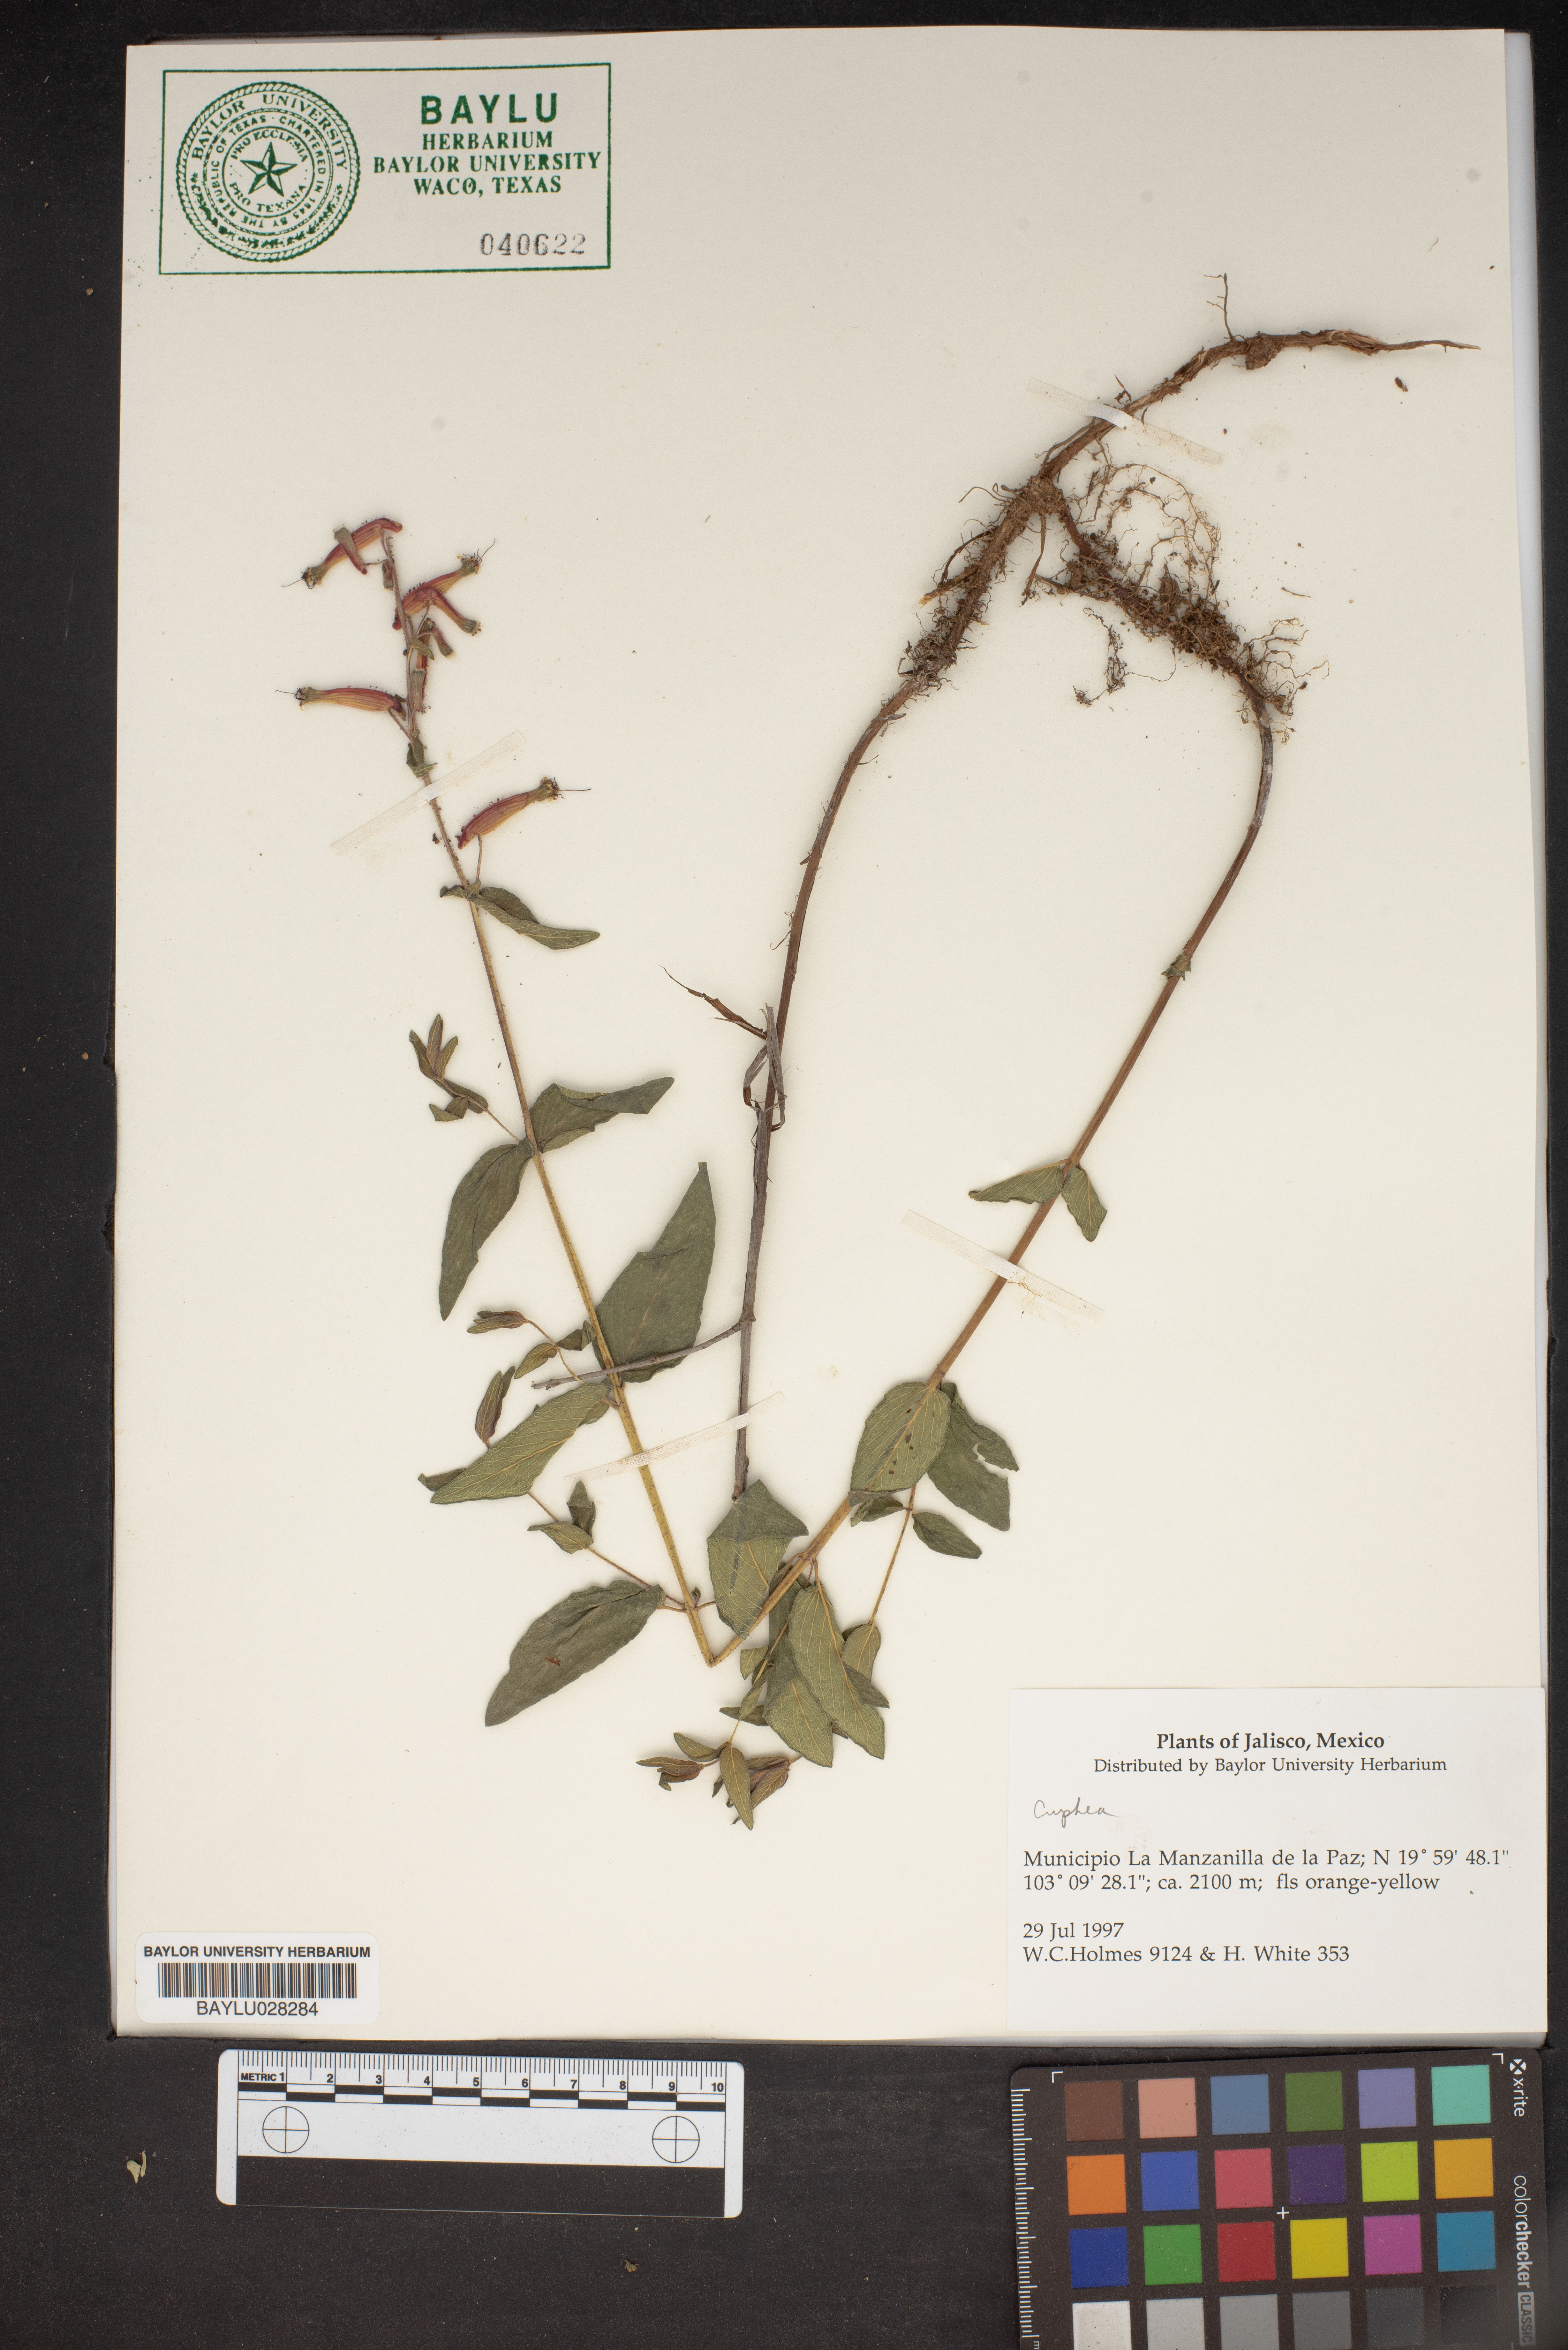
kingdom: Plantae
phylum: Tracheophyta
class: Magnoliopsida
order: Myrtales
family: Lythraceae
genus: Cuphea
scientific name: Cuphea
